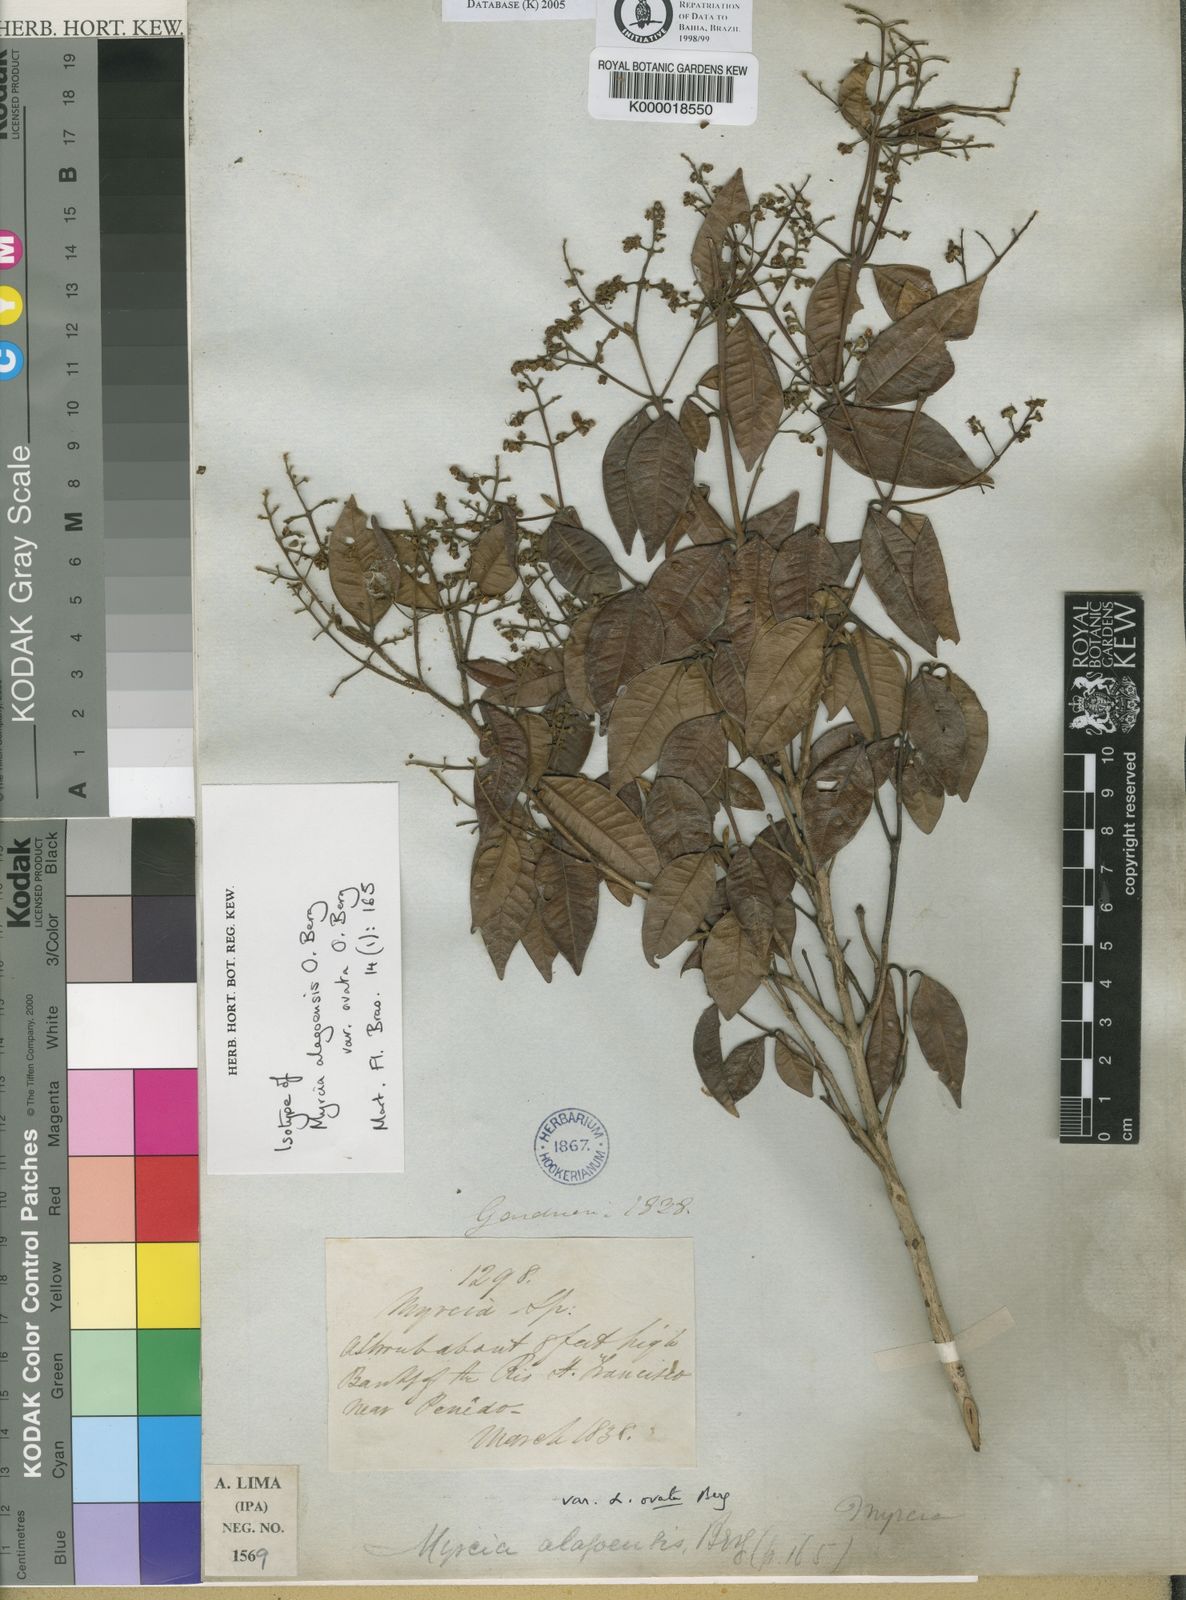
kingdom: Plantae
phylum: Tracheophyta
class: Magnoliopsida
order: Myrtales
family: Myrtaceae
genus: Myrcia
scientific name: Myrcia splendens
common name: Surinam cherry
